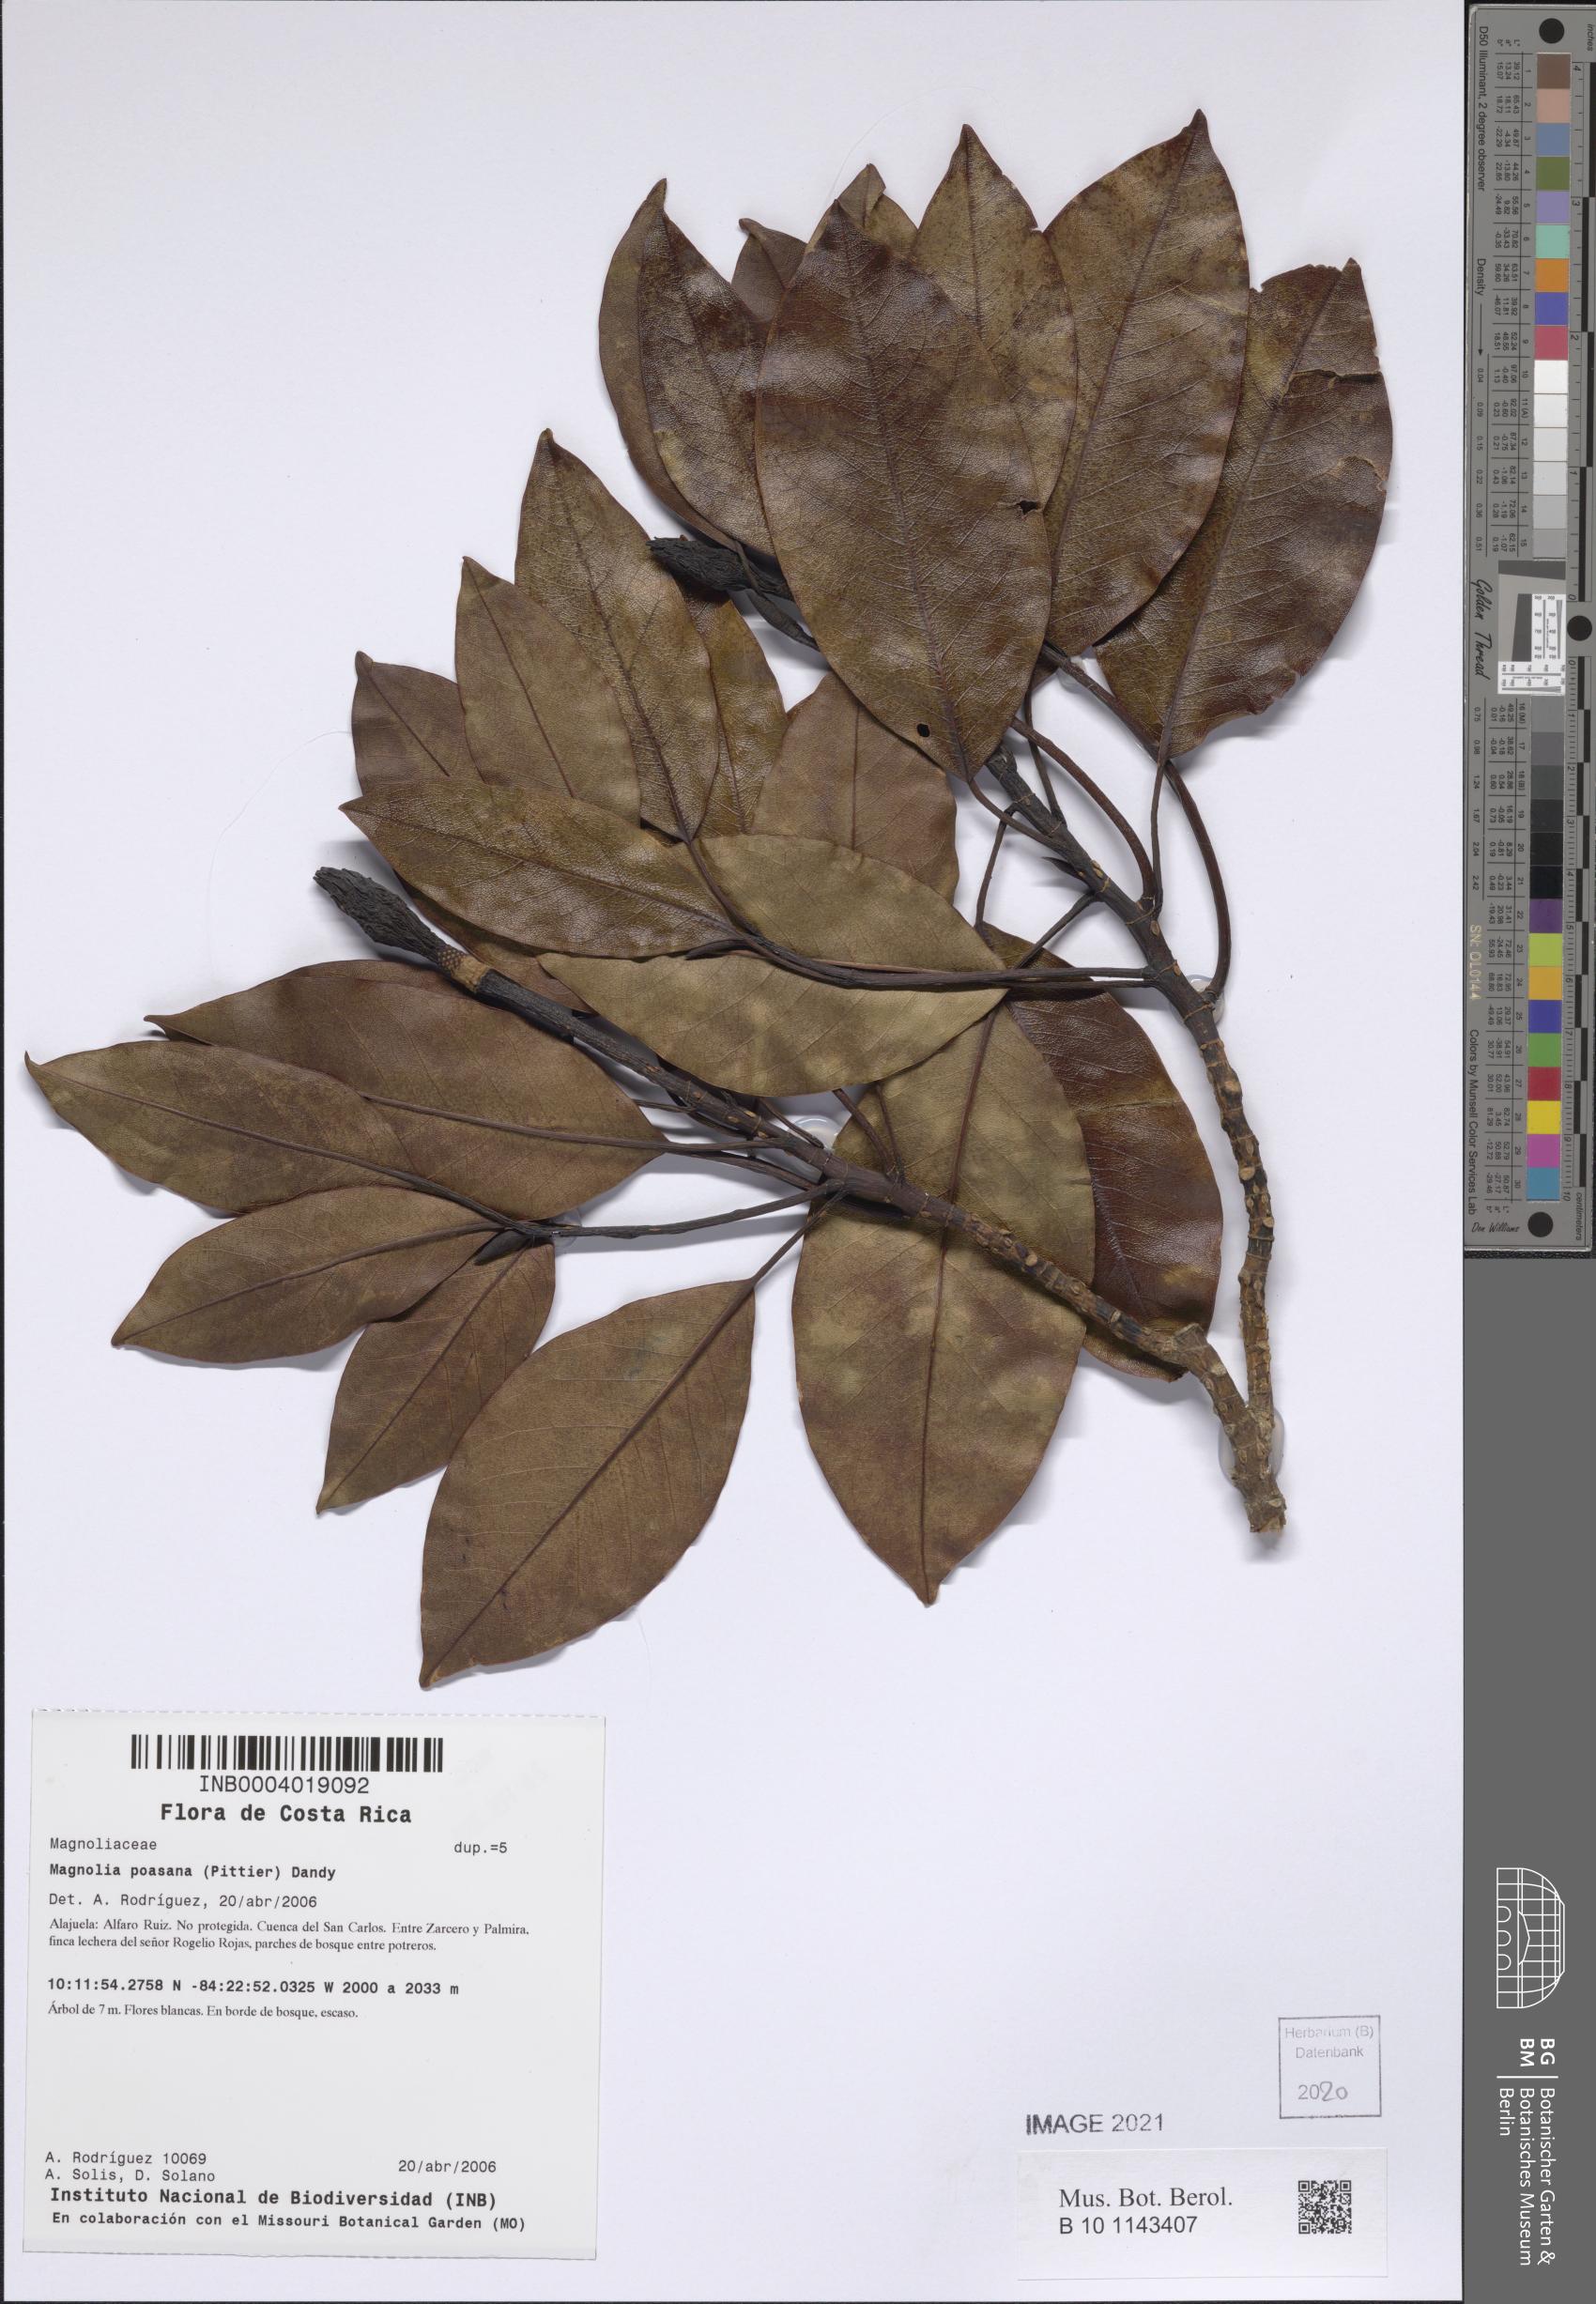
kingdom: Plantae
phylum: Tracheophyta
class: Magnoliopsida
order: Magnoliales
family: Magnoliaceae
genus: Magnolia
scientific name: Magnolia poasana
